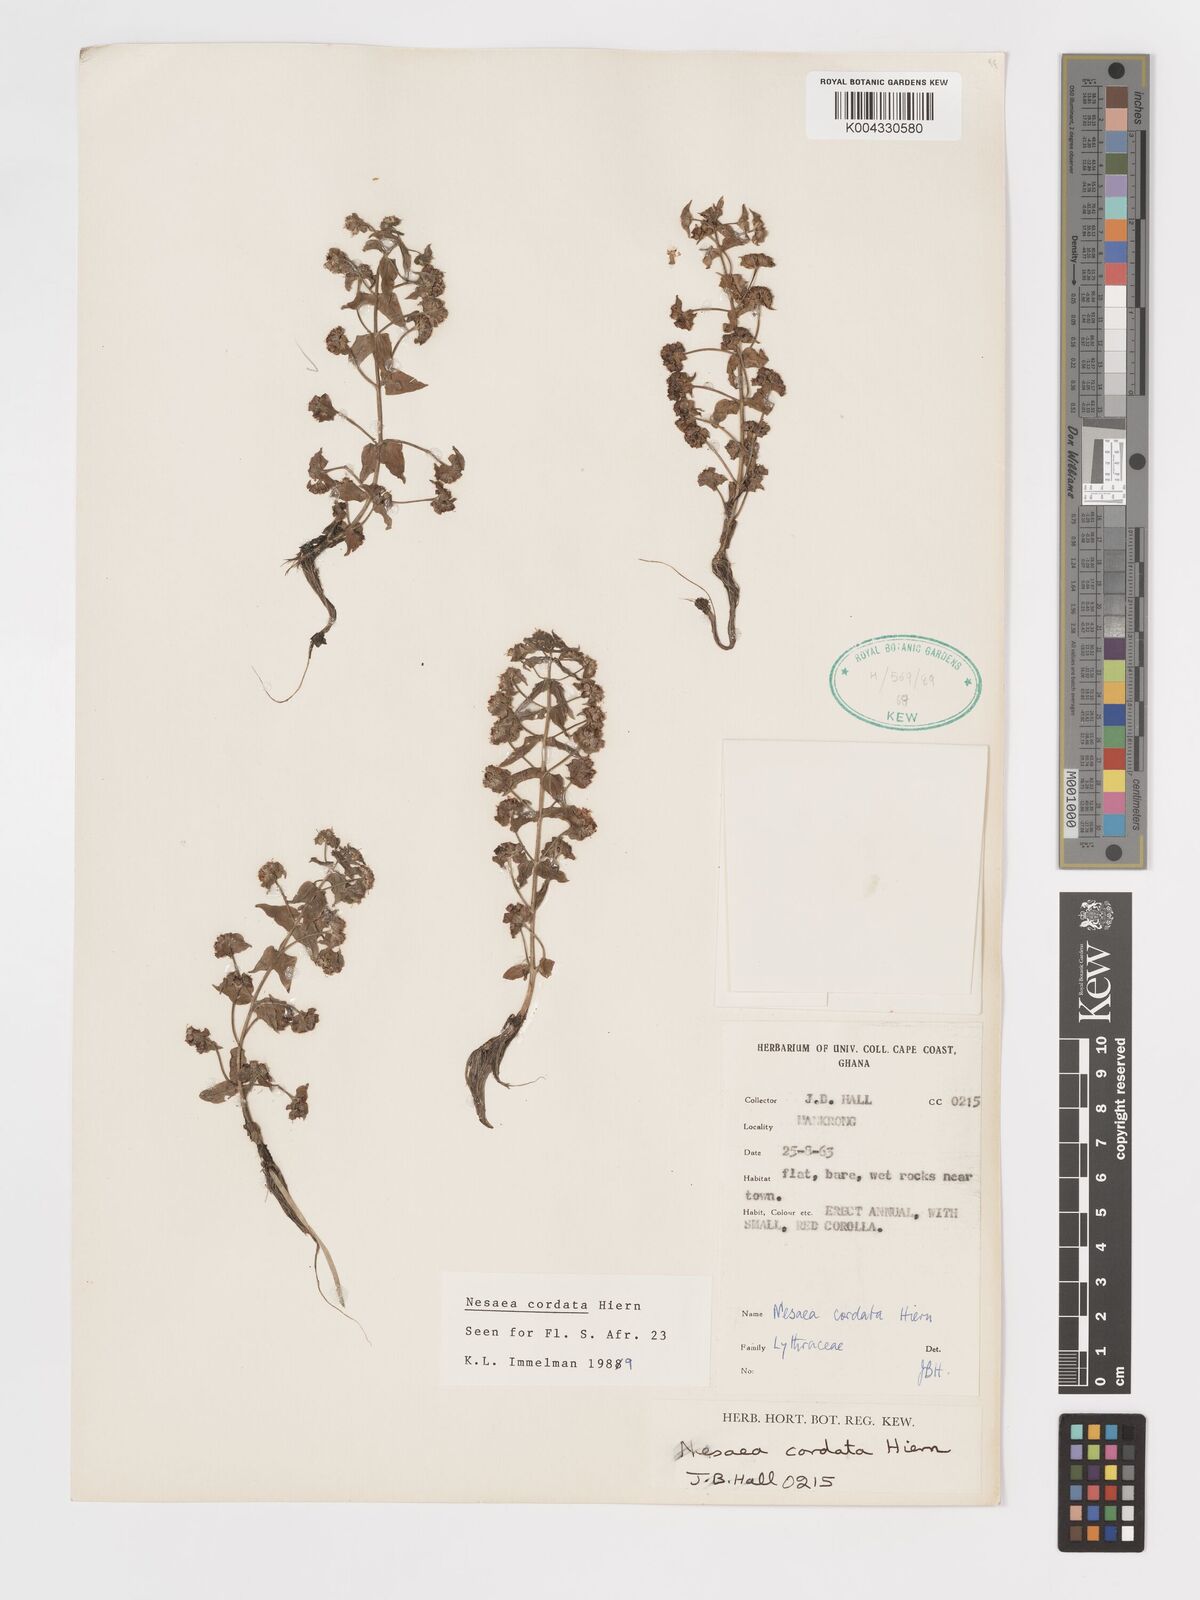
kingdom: Plantae
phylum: Tracheophyta
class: Magnoliopsida
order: Myrtales
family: Lythraceae
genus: Nesaea
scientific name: Nesaea
